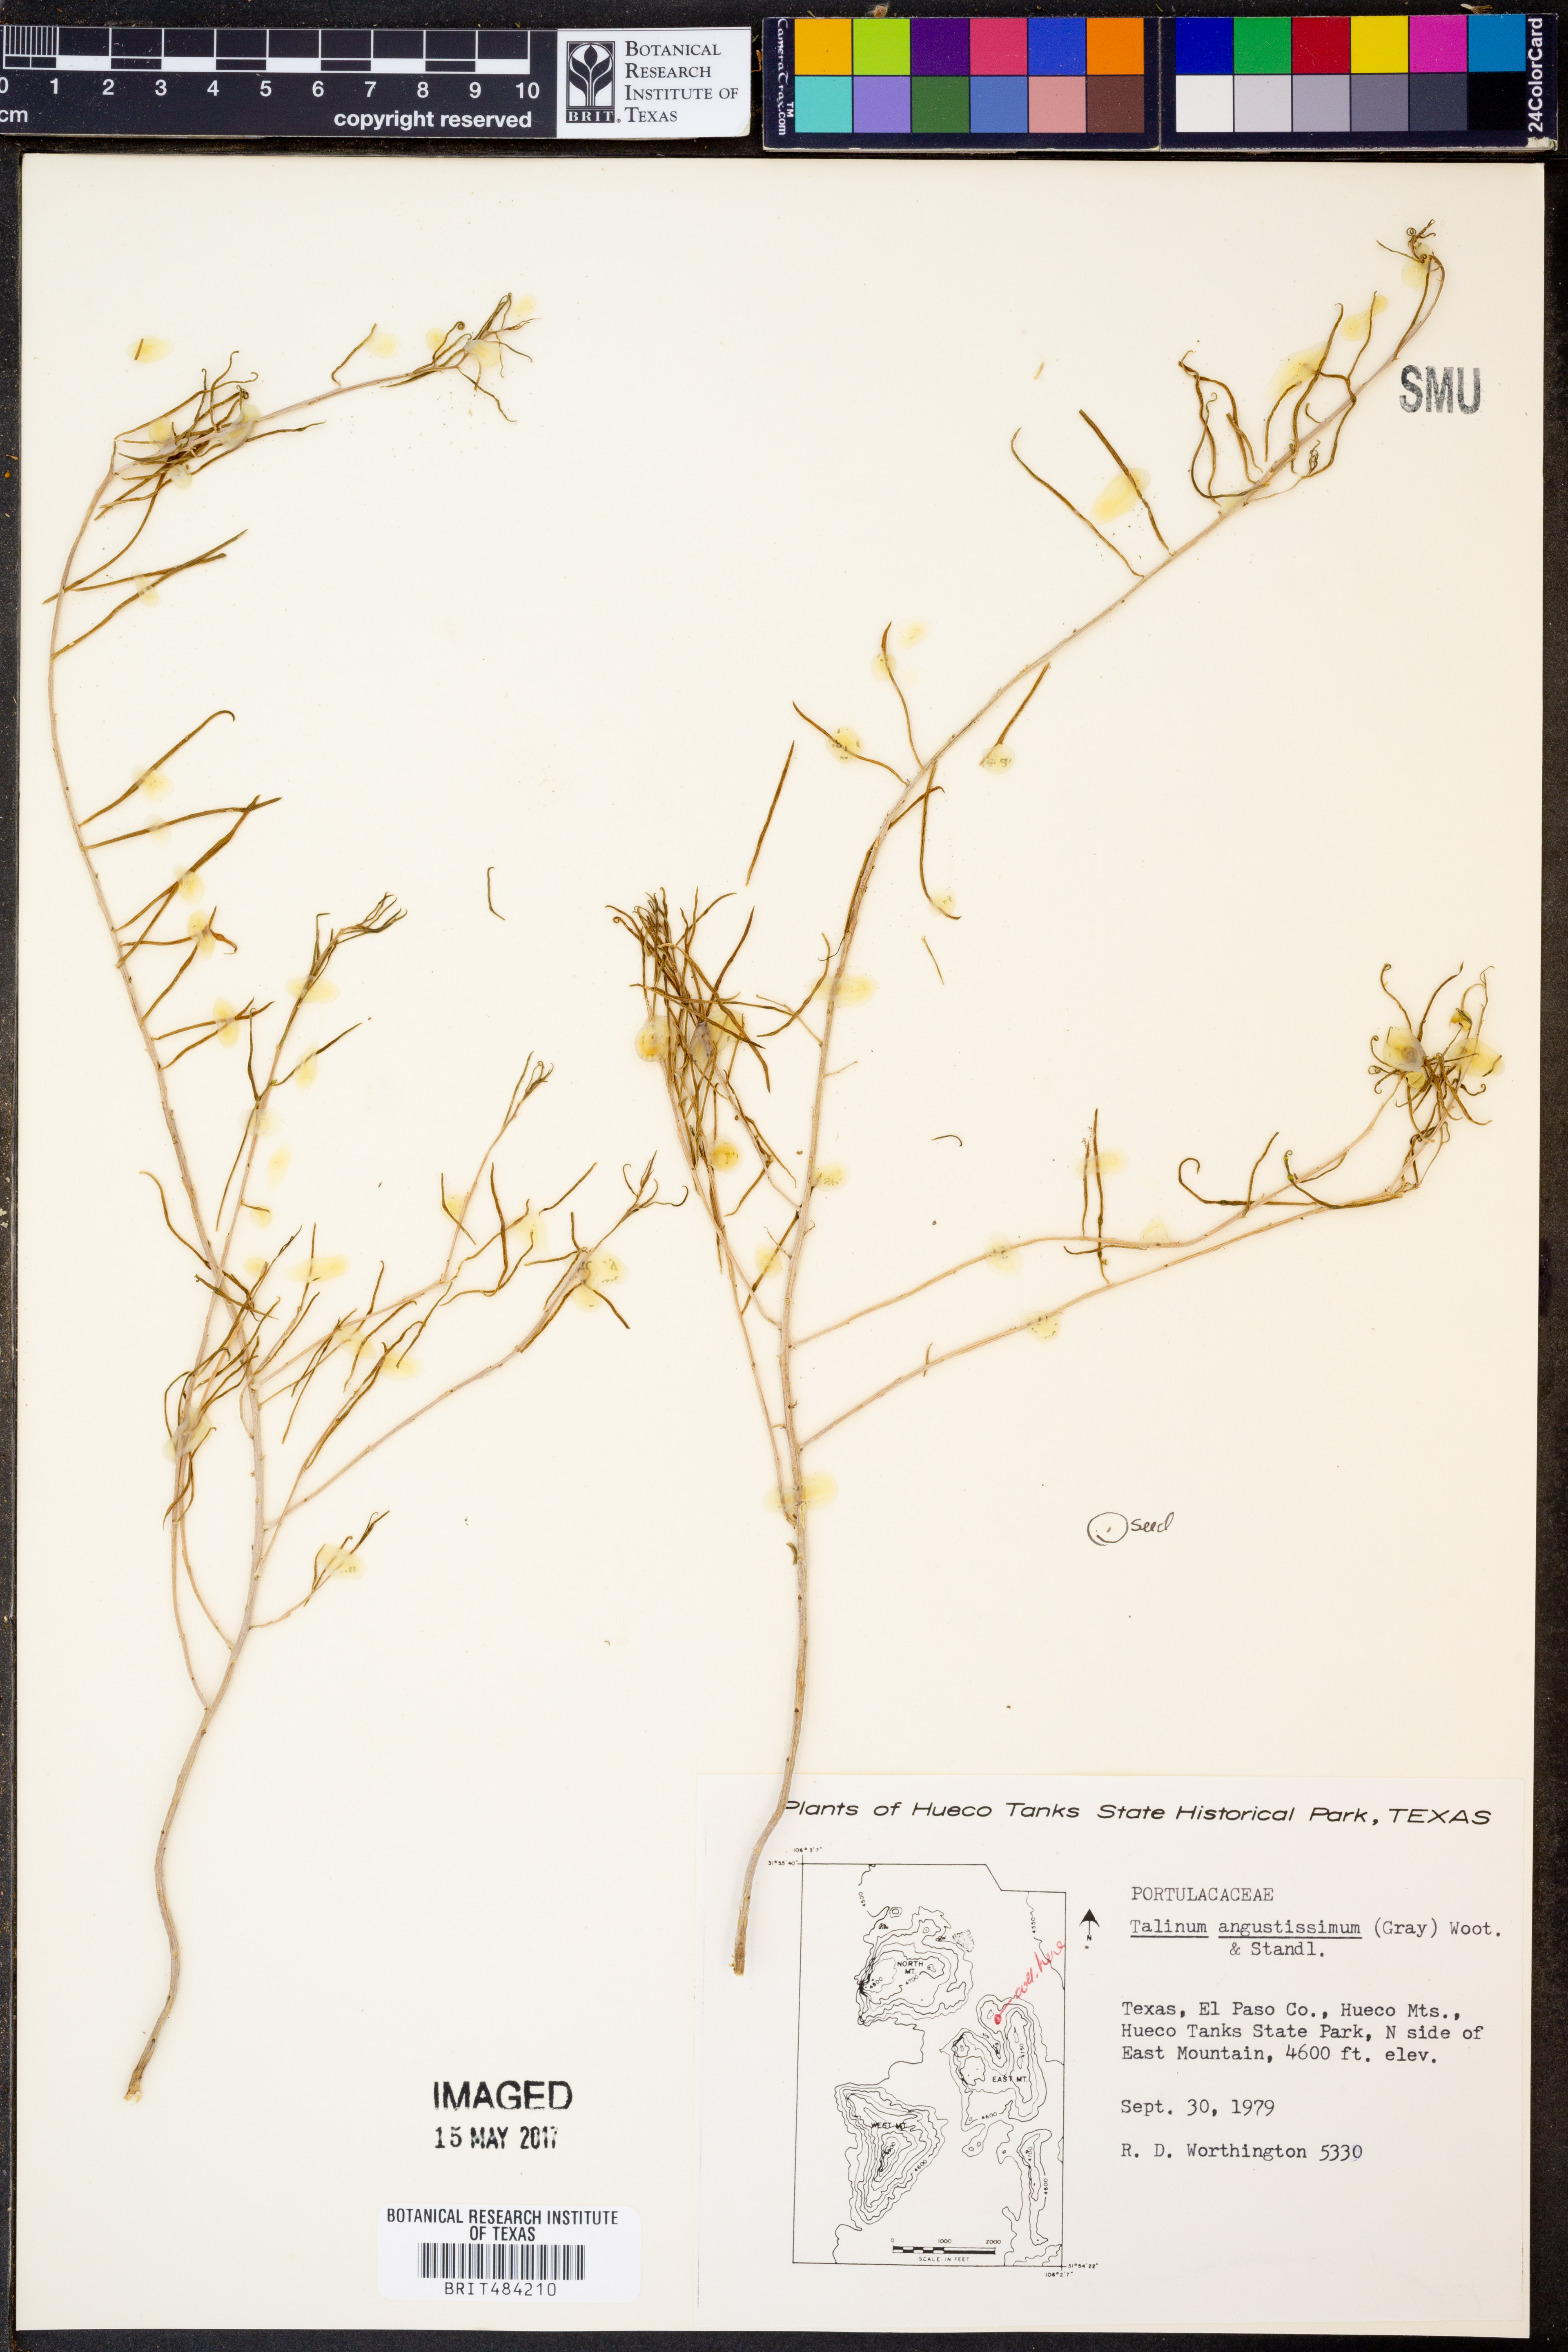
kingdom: Plantae
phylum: Tracheophyta
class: Magnoliopsida
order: Caryophyllales
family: Montiaceae
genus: Phemeranthus
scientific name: Phemeranthus aurantiacus
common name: Orange fameflower
